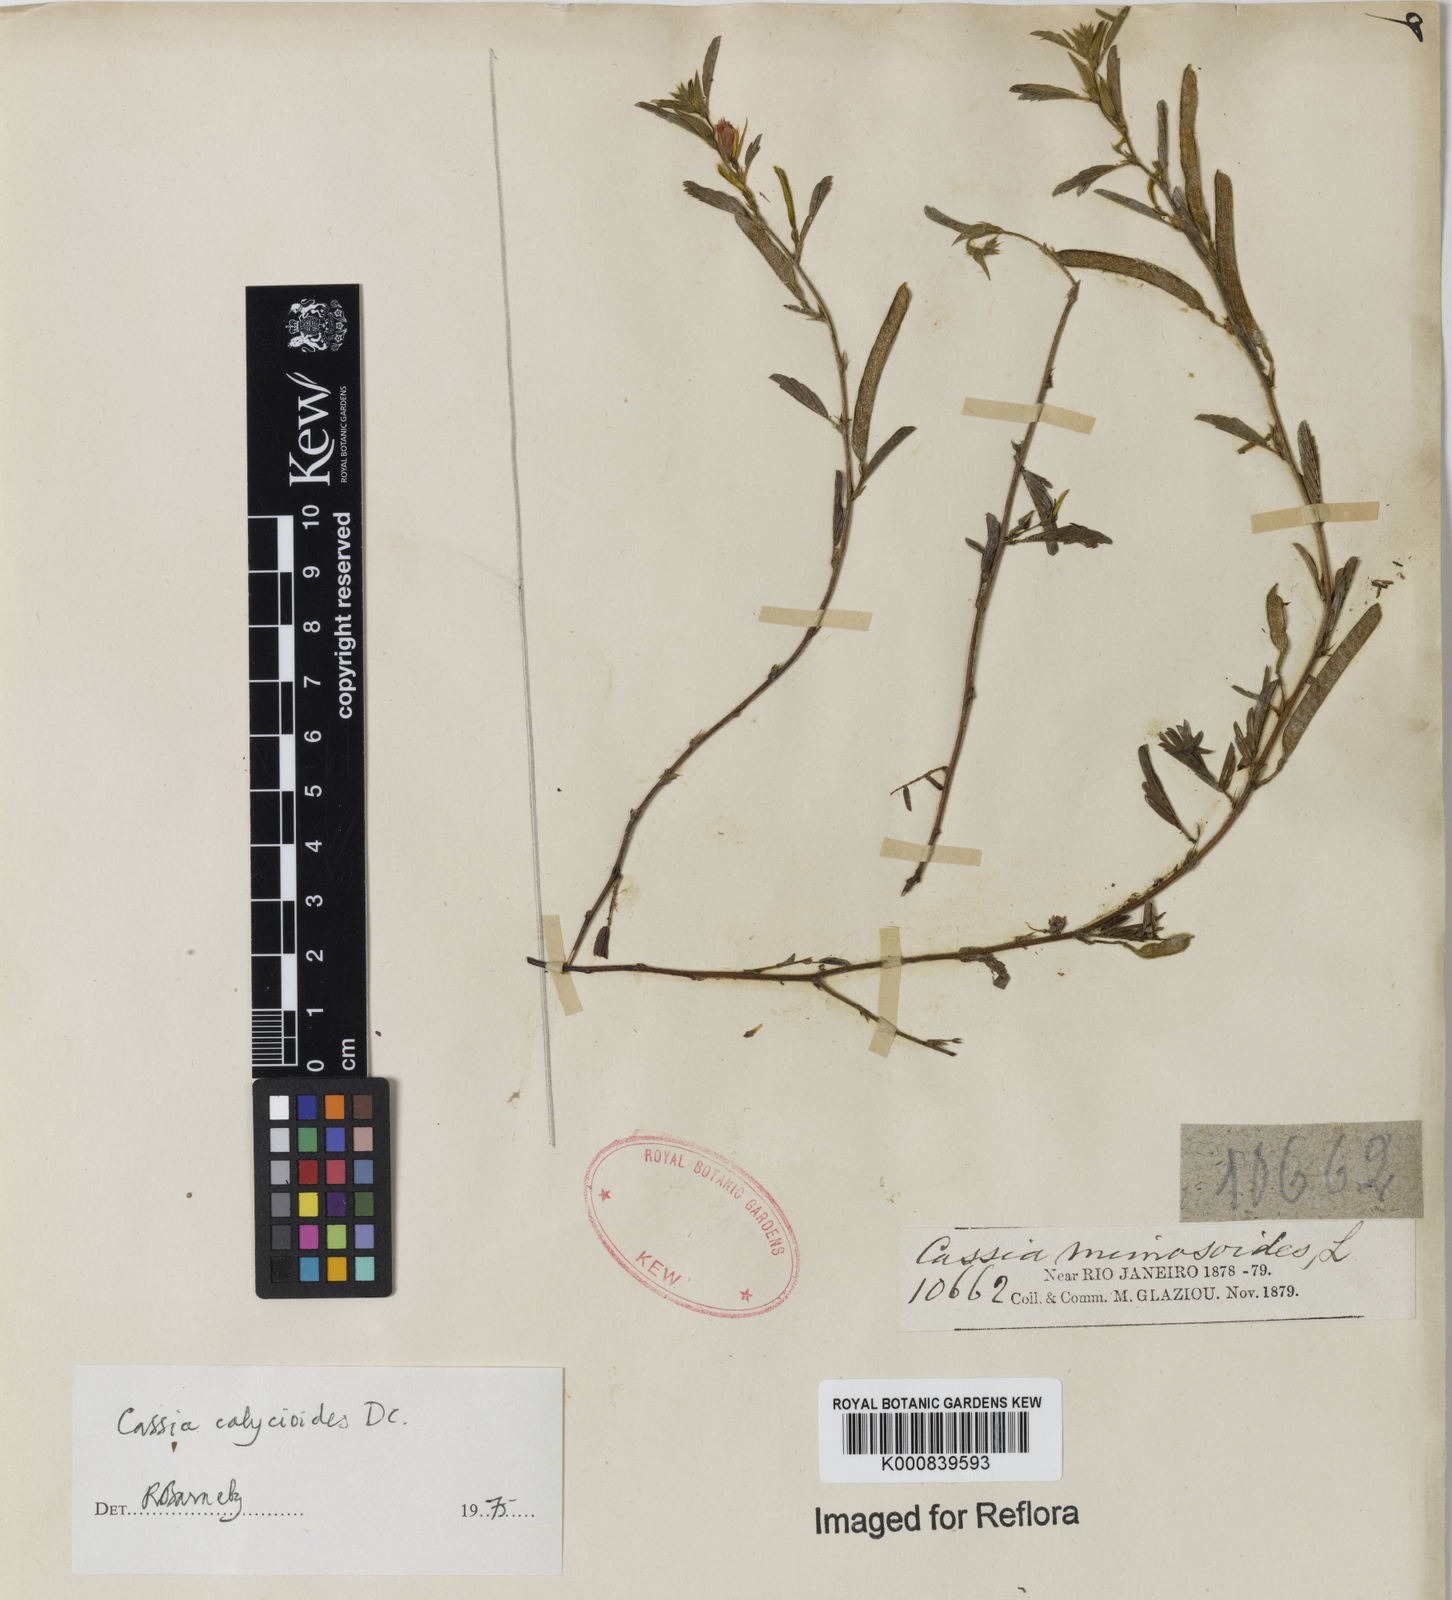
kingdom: Plantae
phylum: Tracheophyta
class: Magnoliopsida
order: Fabales
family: Fabaceae
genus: Chamaecrista
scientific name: Chamaecrista calycioides
